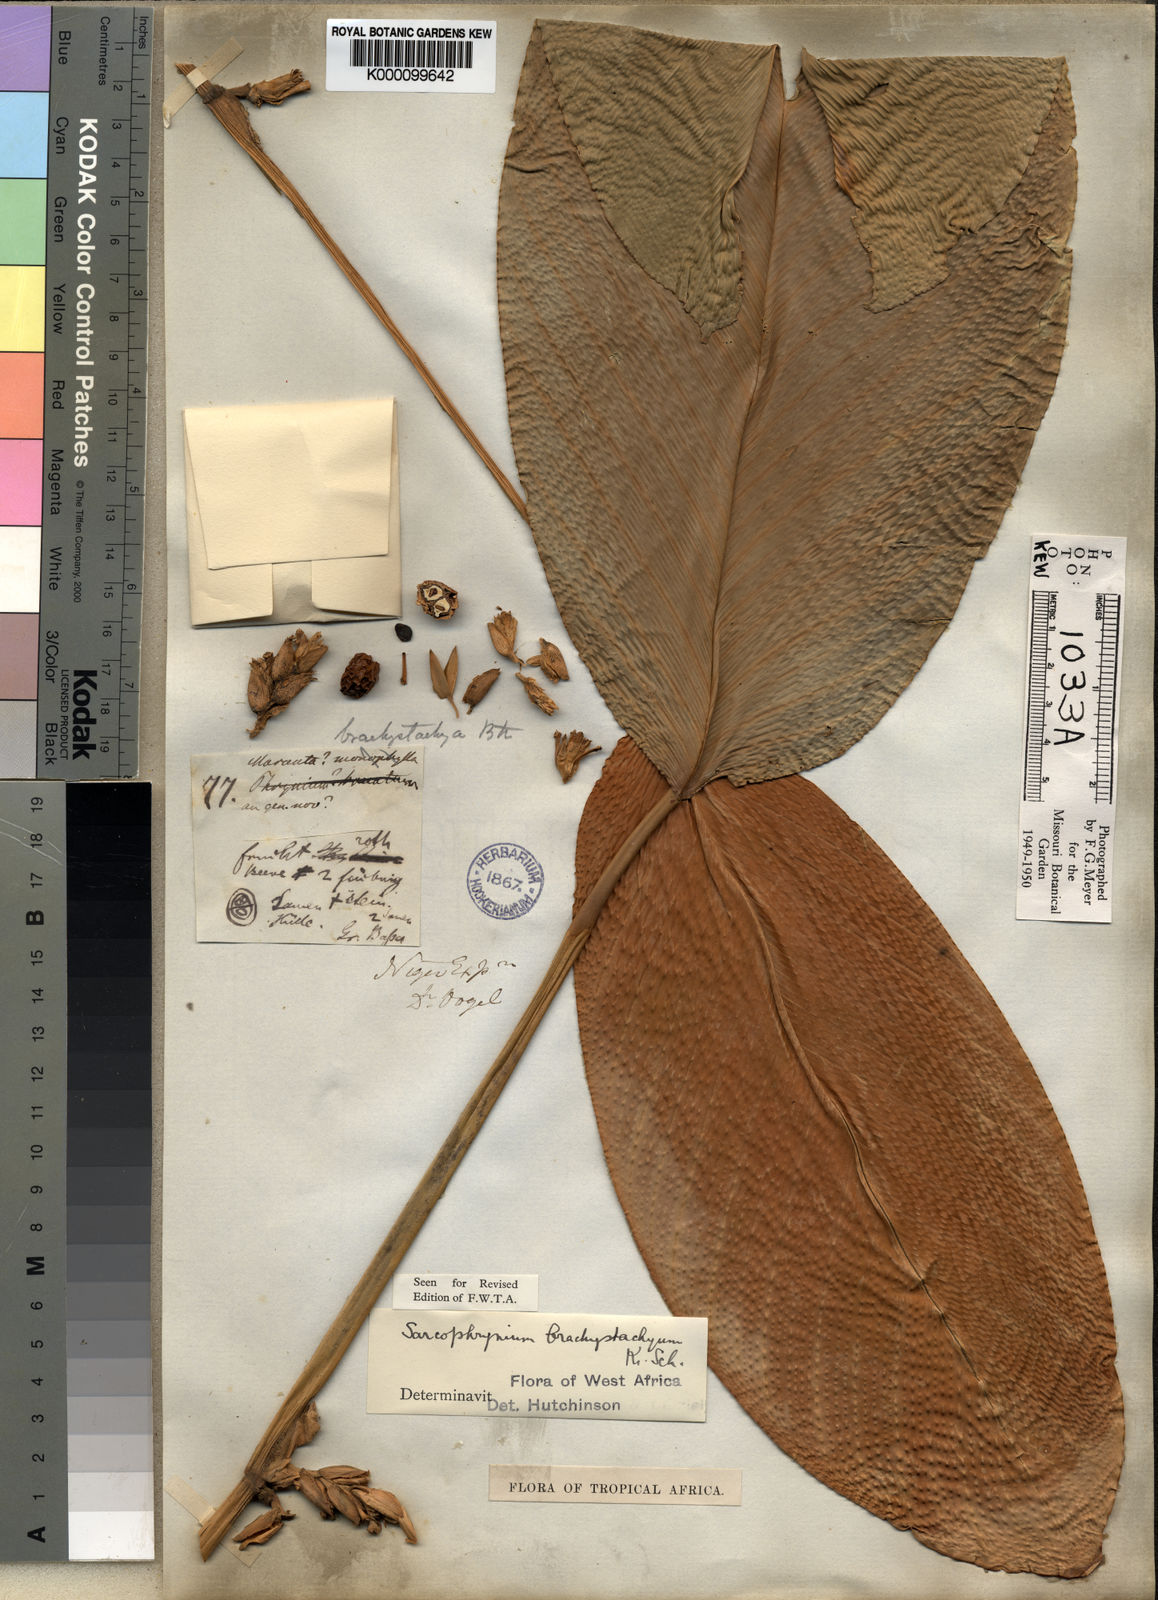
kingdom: Plantae
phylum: Tracheophyta
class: Liliopsida
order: Zingiberales
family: Marantaceae
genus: Sarcophrynium
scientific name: Sarcophrynium brachystachyum
